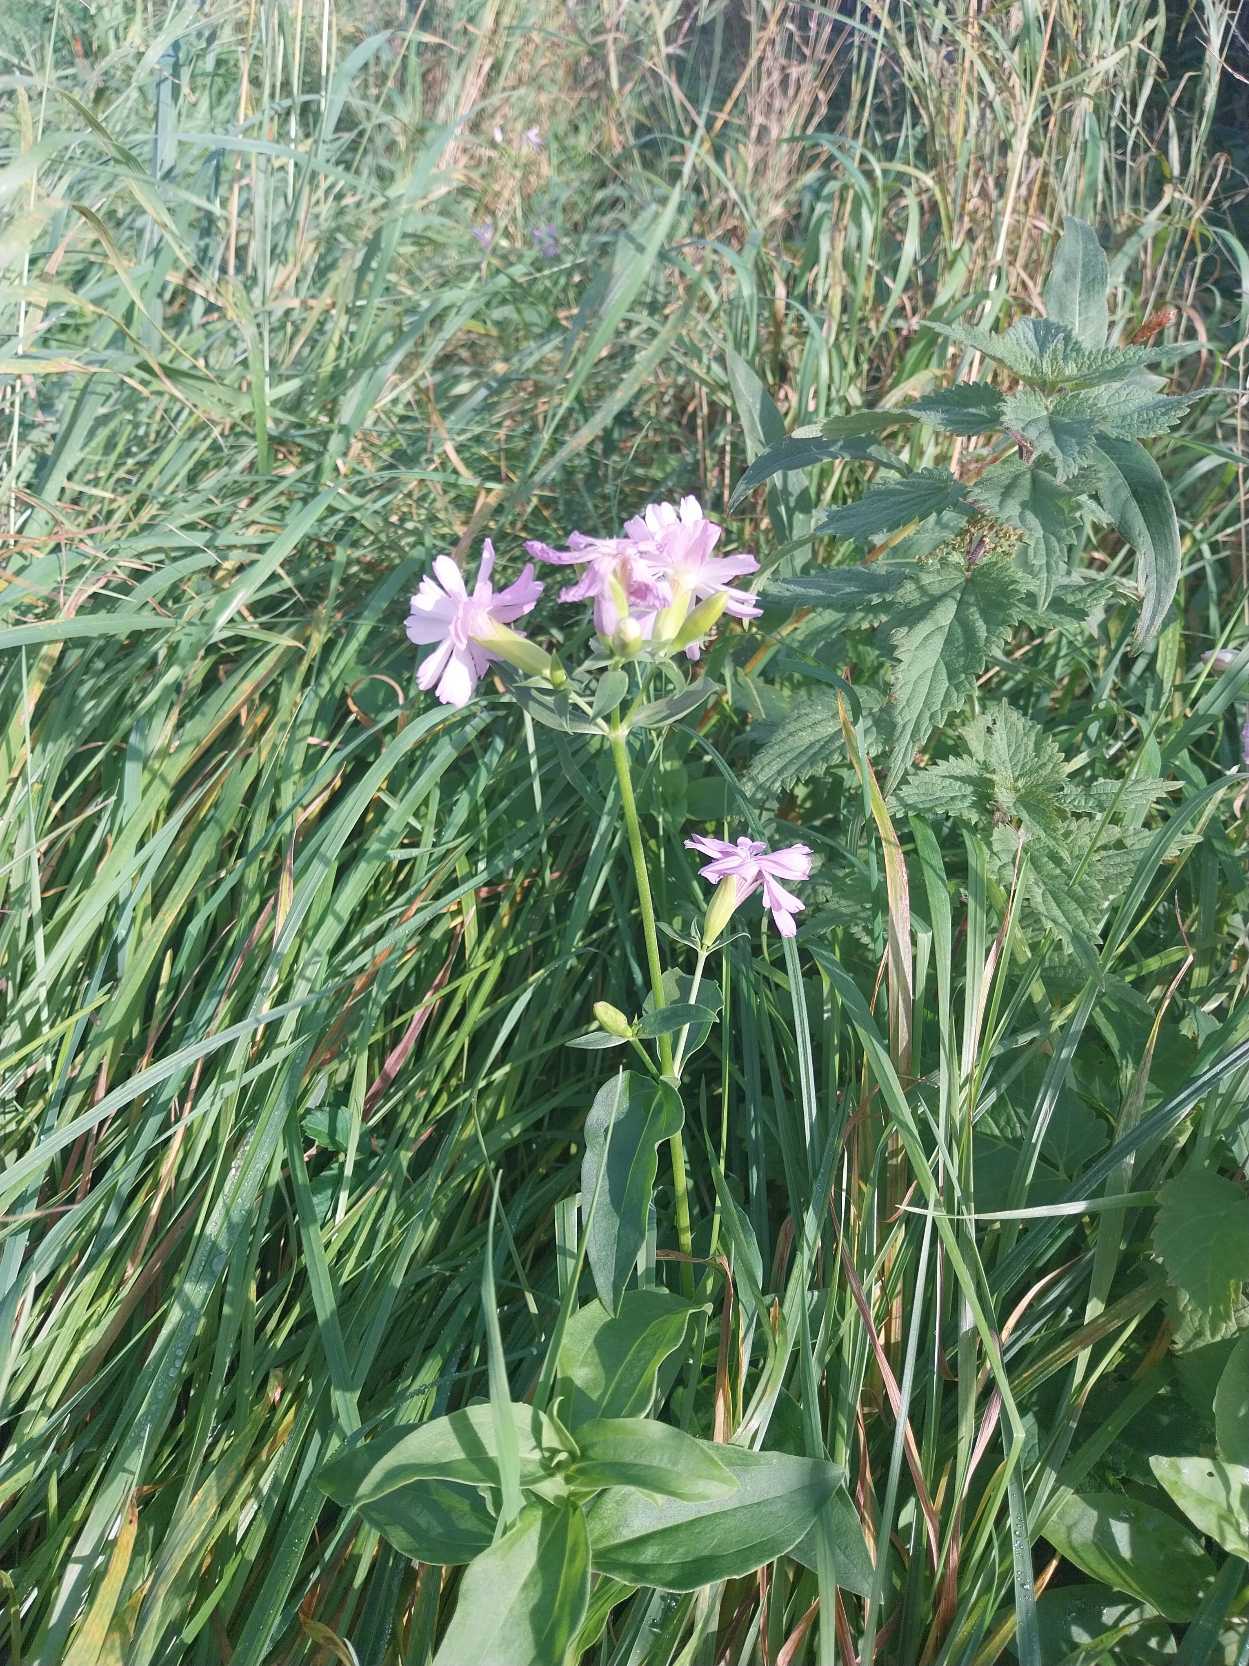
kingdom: Plantae
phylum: Tracheophyta
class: Magnoliopsida
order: Caryophyllales
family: Caryophyllaceae
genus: Saponaria
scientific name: Saponaria officinalis
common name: Sæbeurt
